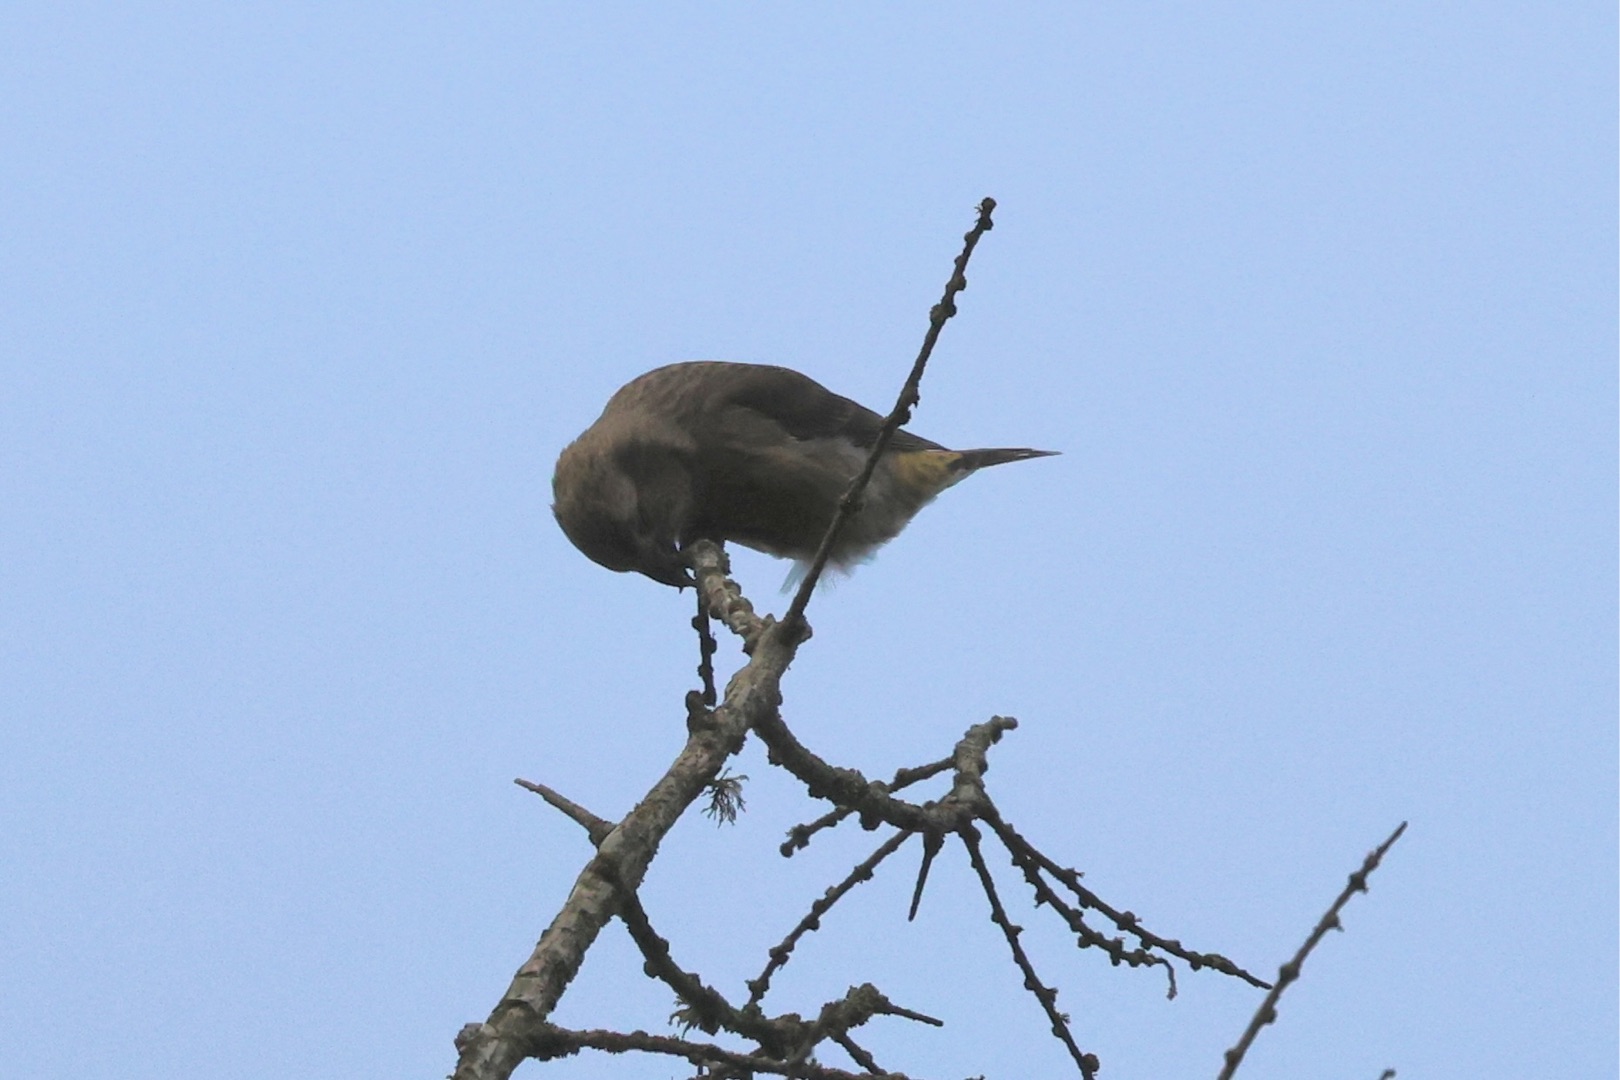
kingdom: Animalia
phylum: Chordata
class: Aves
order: Passeriformes
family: Fringillidae
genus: Loxia
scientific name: Loxia curvirostra
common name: Lille korsnæb
